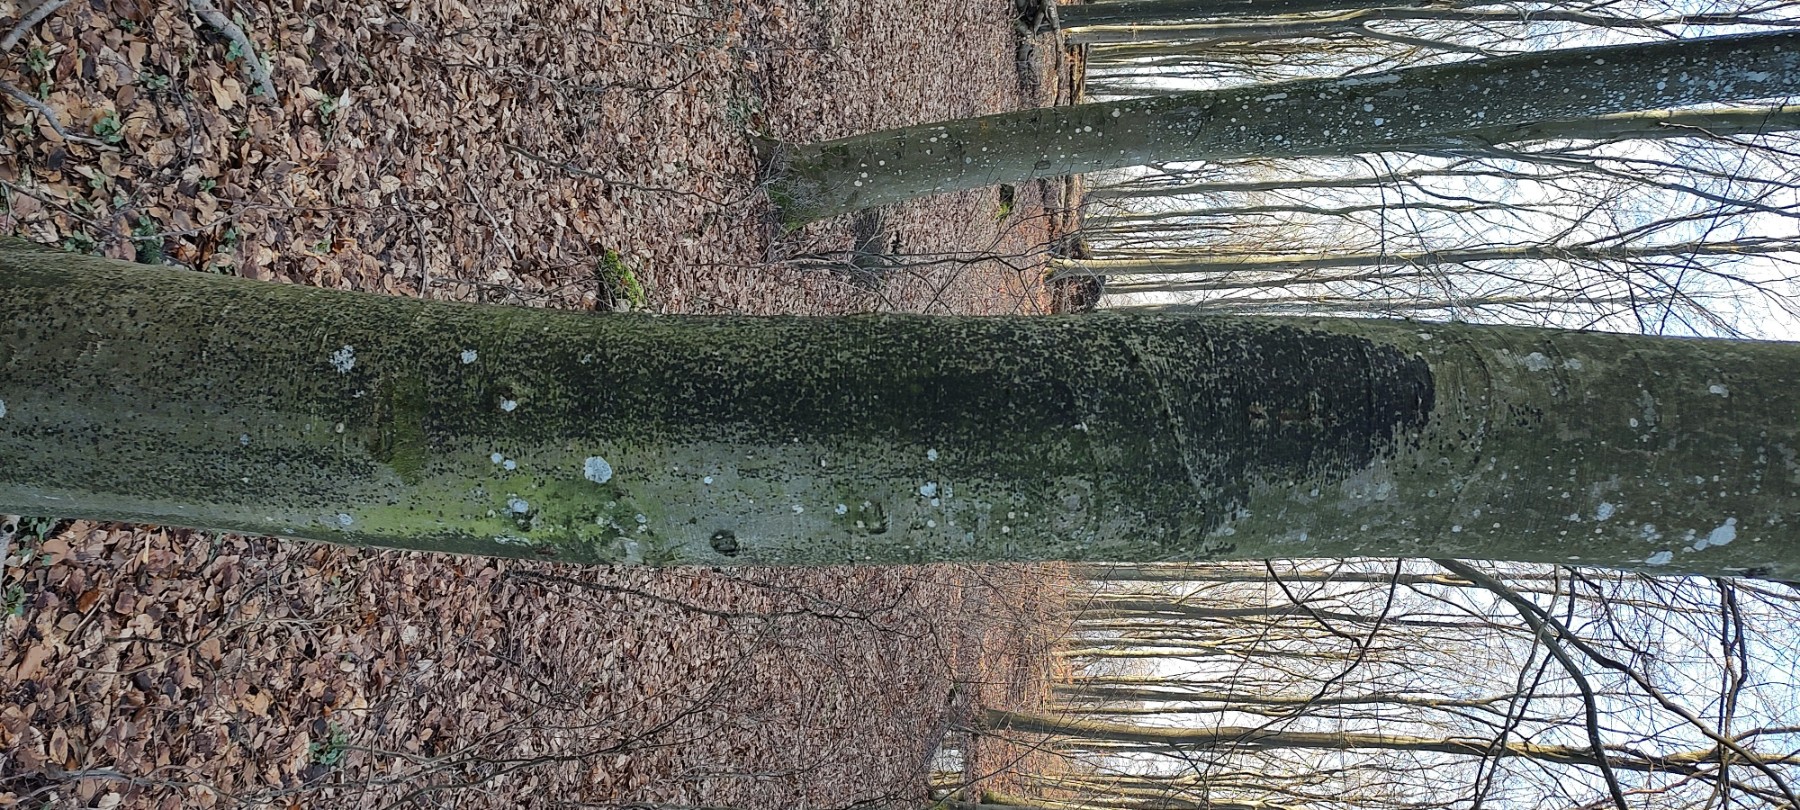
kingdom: Fungi
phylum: Ascomycota
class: Leotiomycetes
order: Rhytismatales
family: Ascodichaenaceae
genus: Ascodichaena
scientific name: Ascodichaena rugosa
